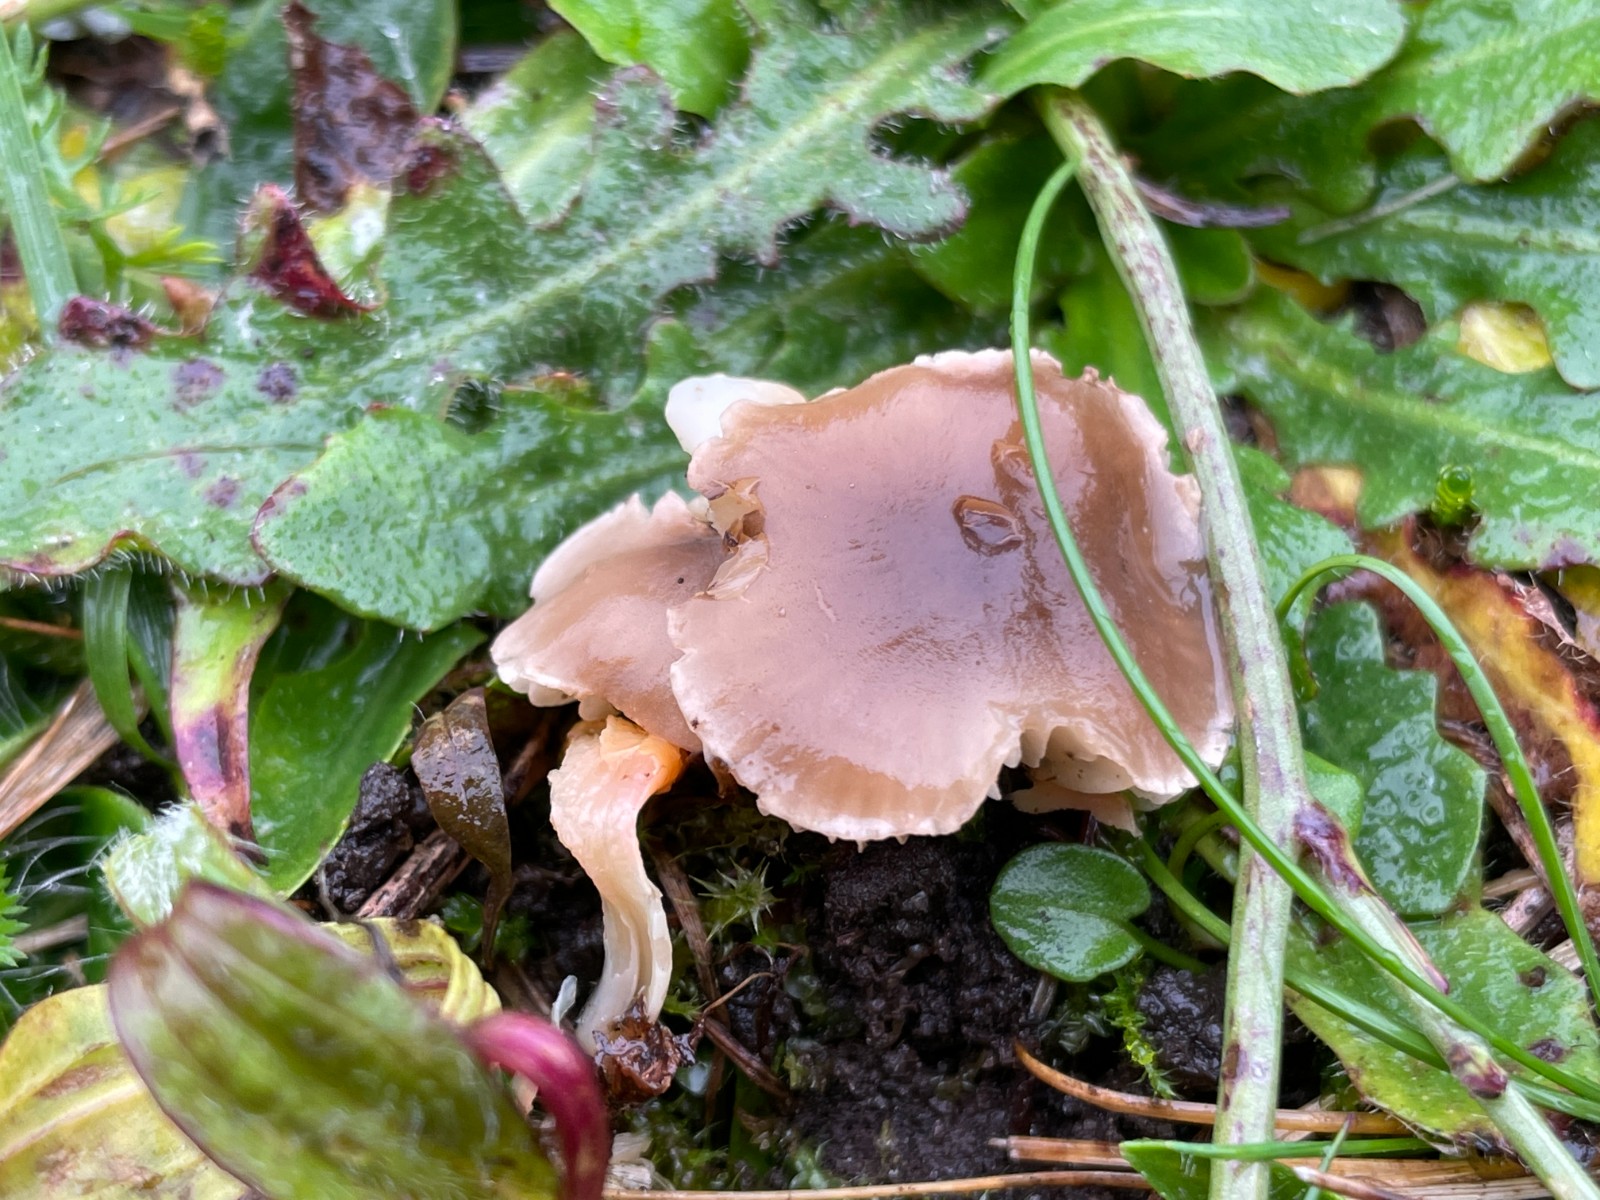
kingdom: Fungi
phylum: Basidiomycota
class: Agaricomycetes
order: Agaricales
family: Tricholomataceae
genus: Dermoloma
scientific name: Dermoloma cuneifolium
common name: eng-nonnehat
